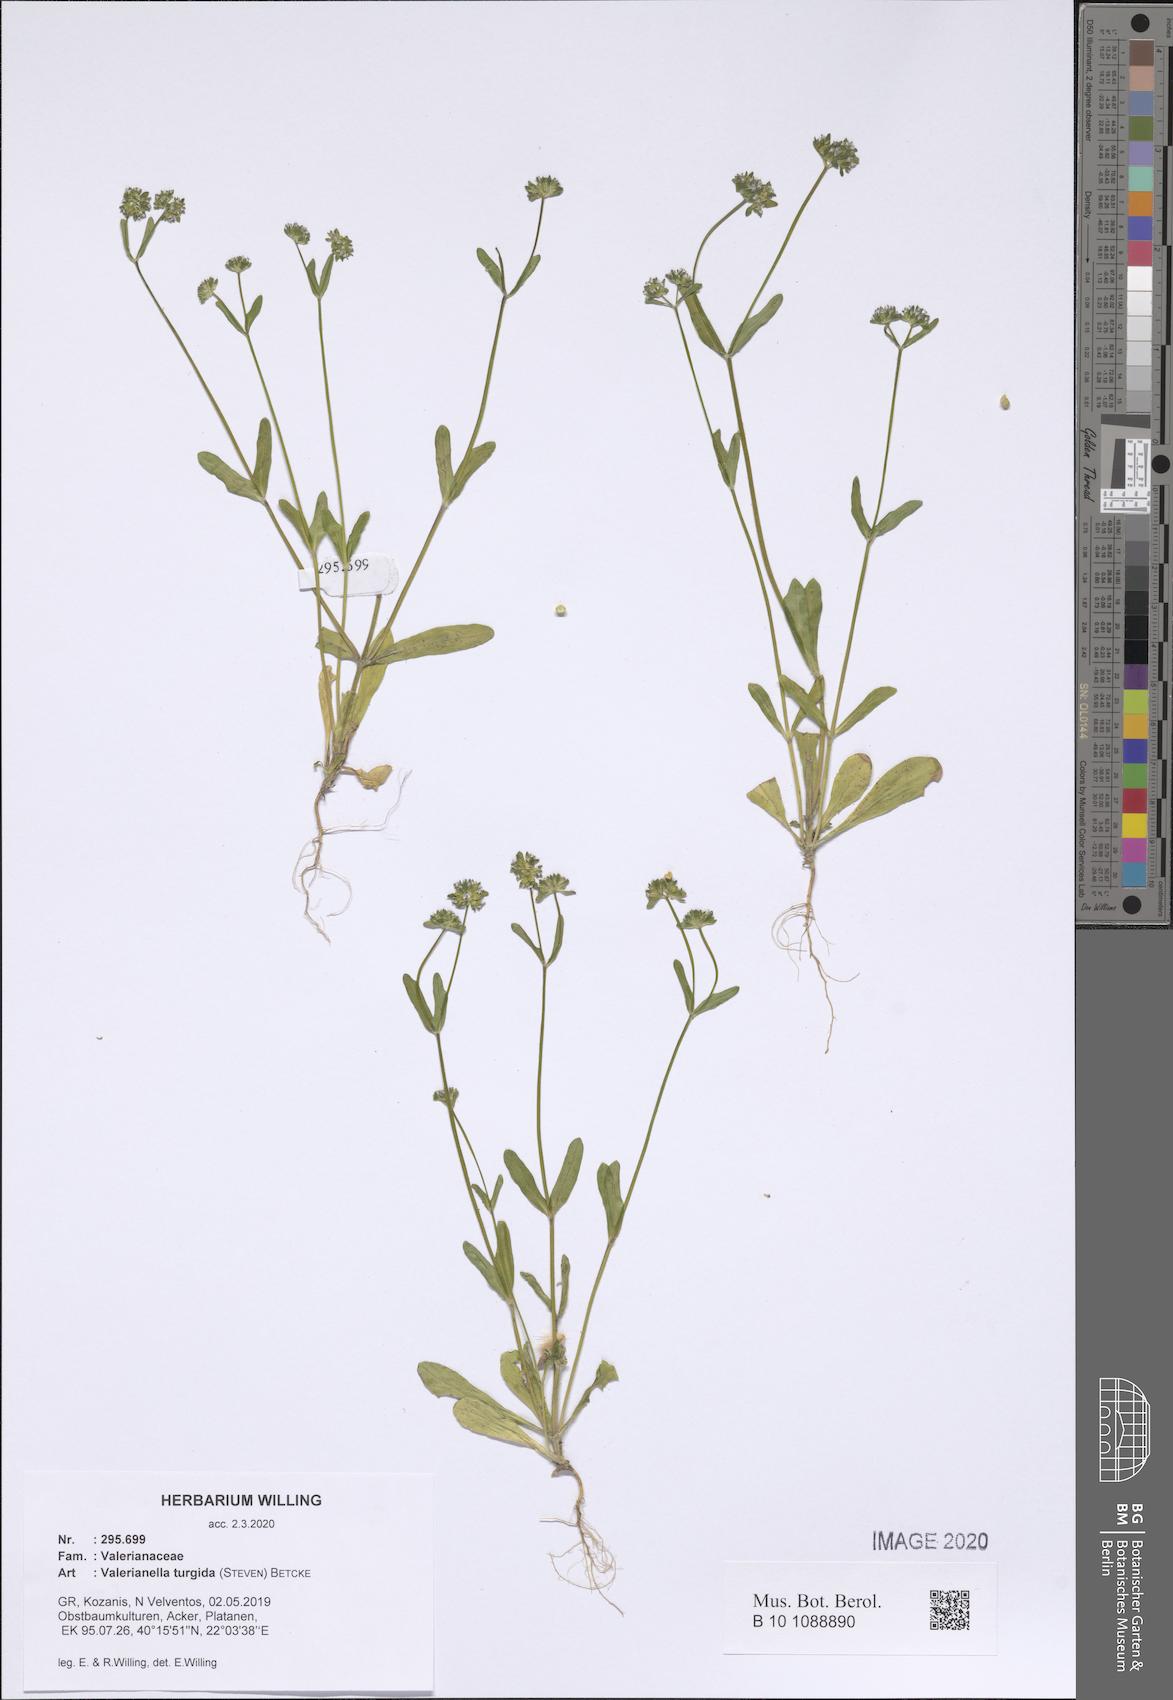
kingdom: Plantae
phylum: Tracheophyta
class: Magnoliopsida
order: Dipsacales
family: Caprifoliaceae
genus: Valerianella
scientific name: Valerianella turgida
